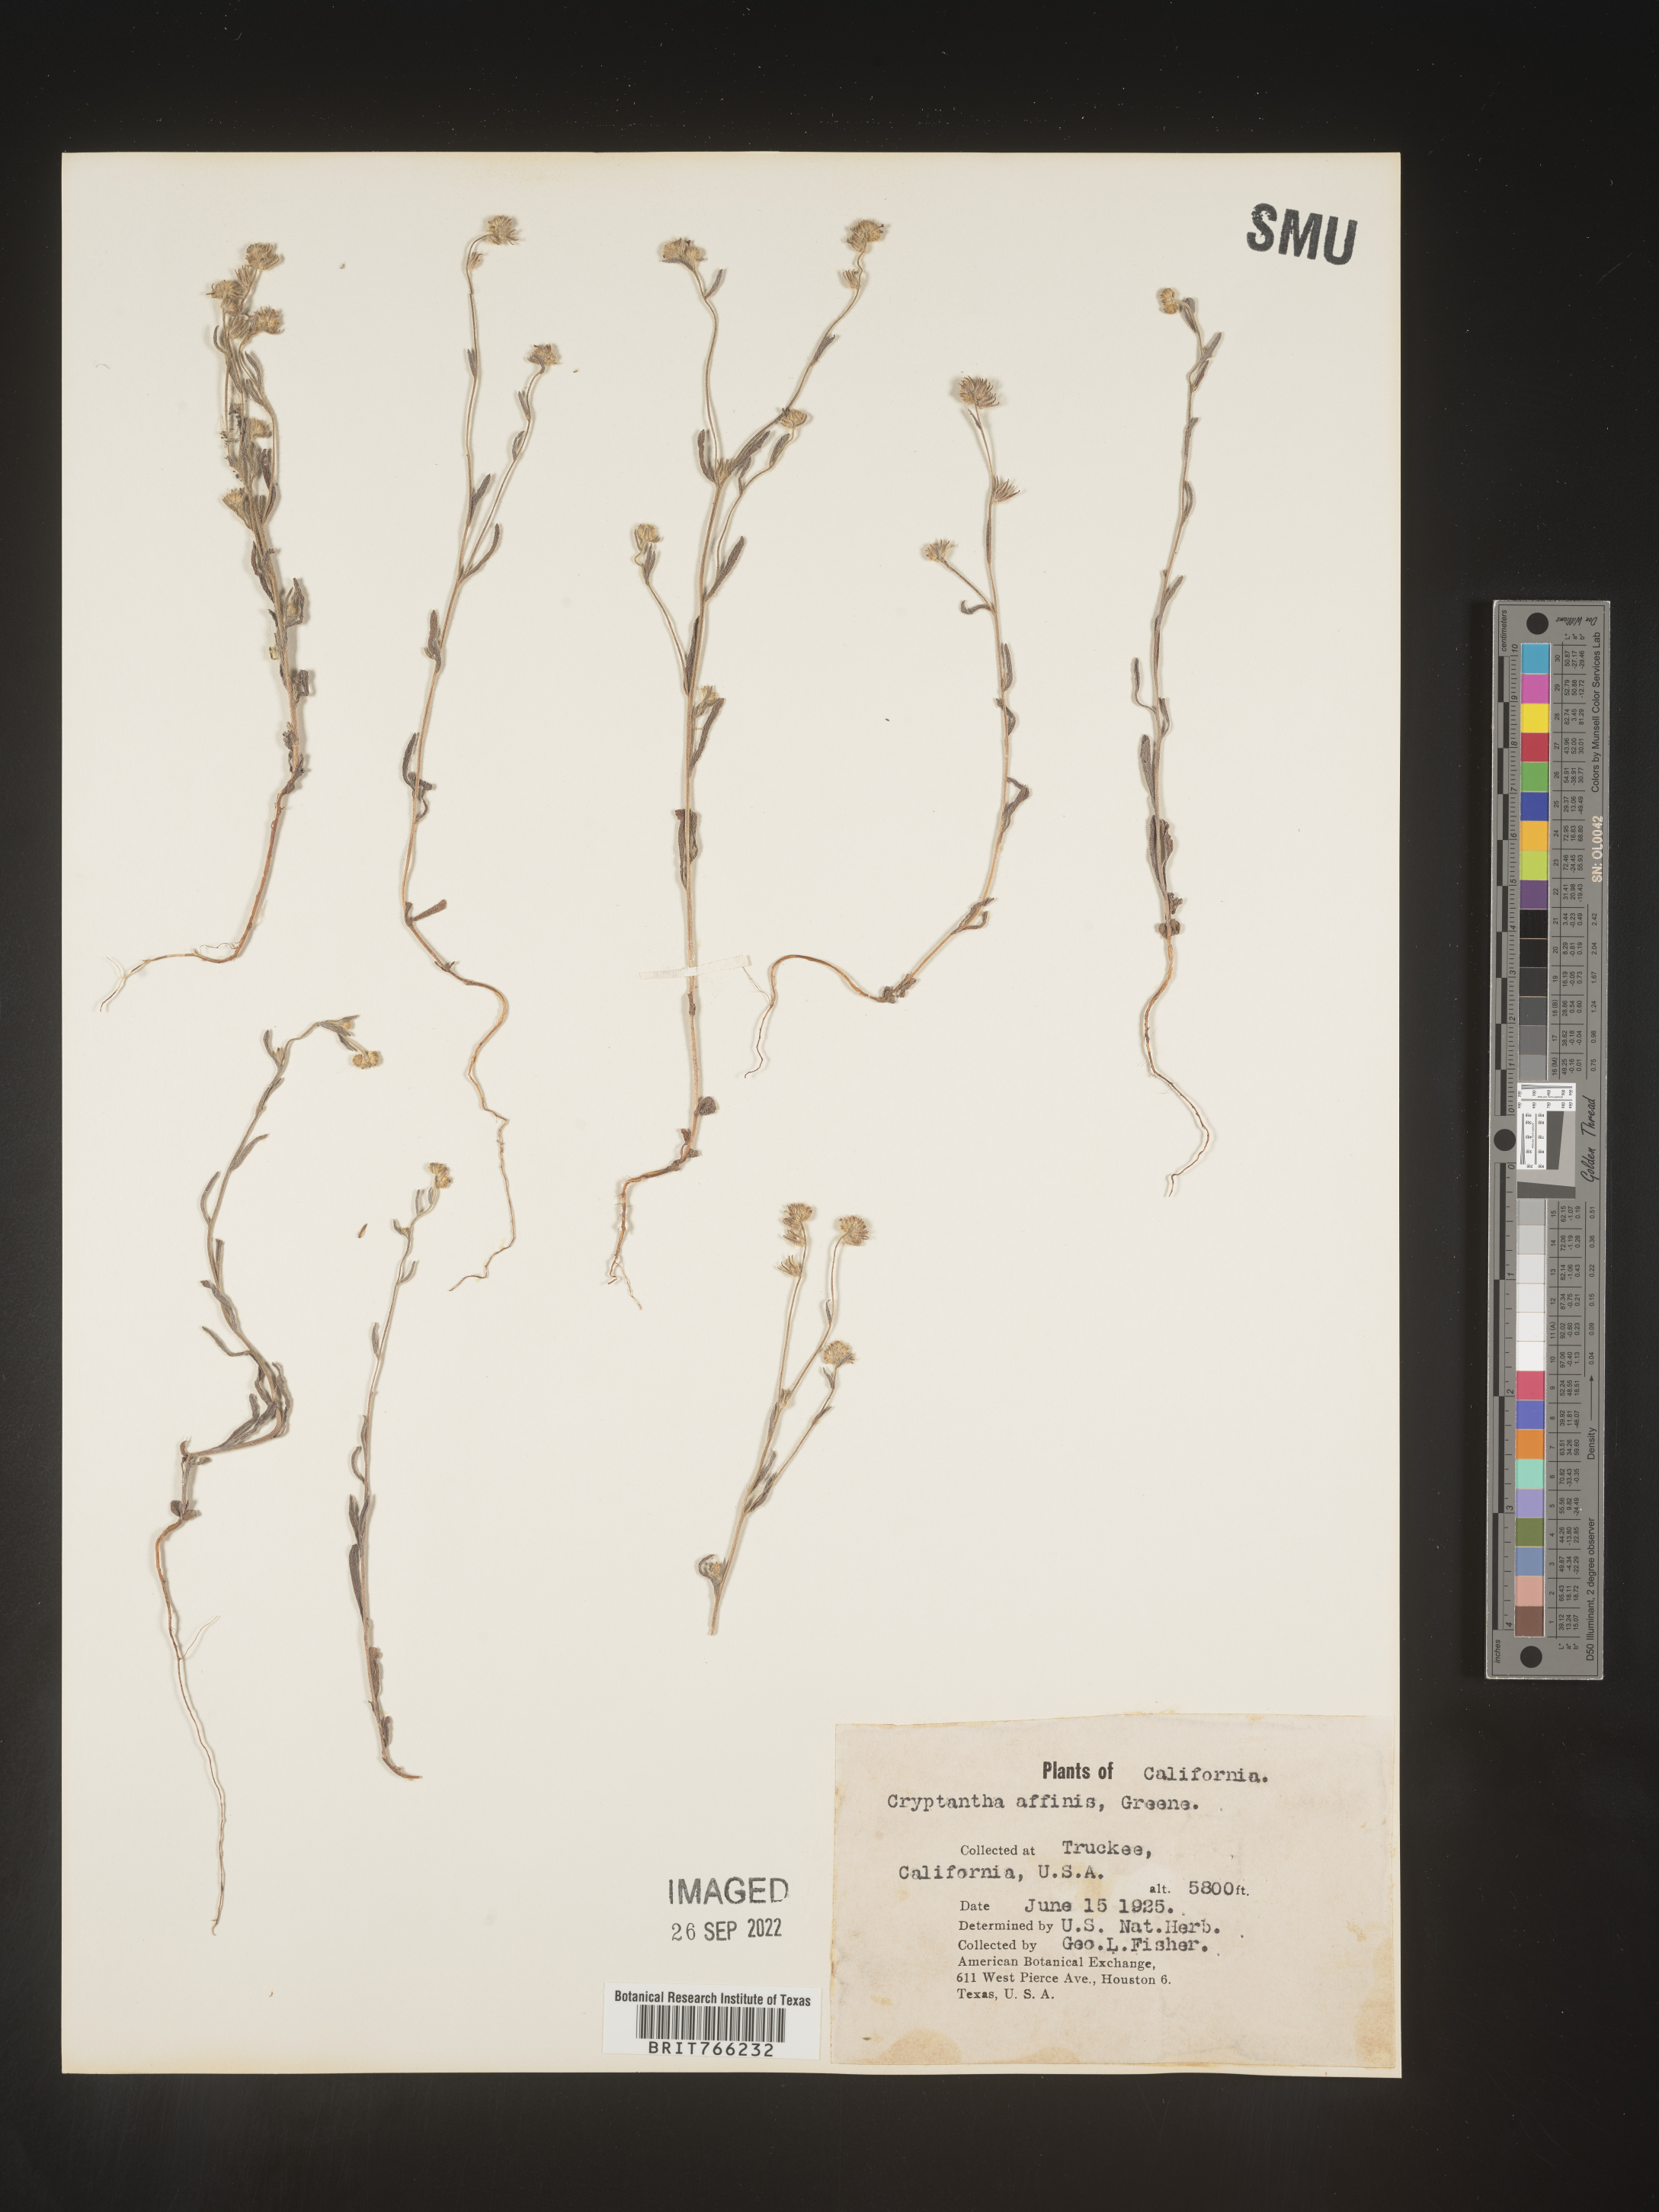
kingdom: Plantae
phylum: Tracheophyta
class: Magnoliopsida
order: Boraginales
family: Boraginaceae
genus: Cryptantha
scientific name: Cryptantha
